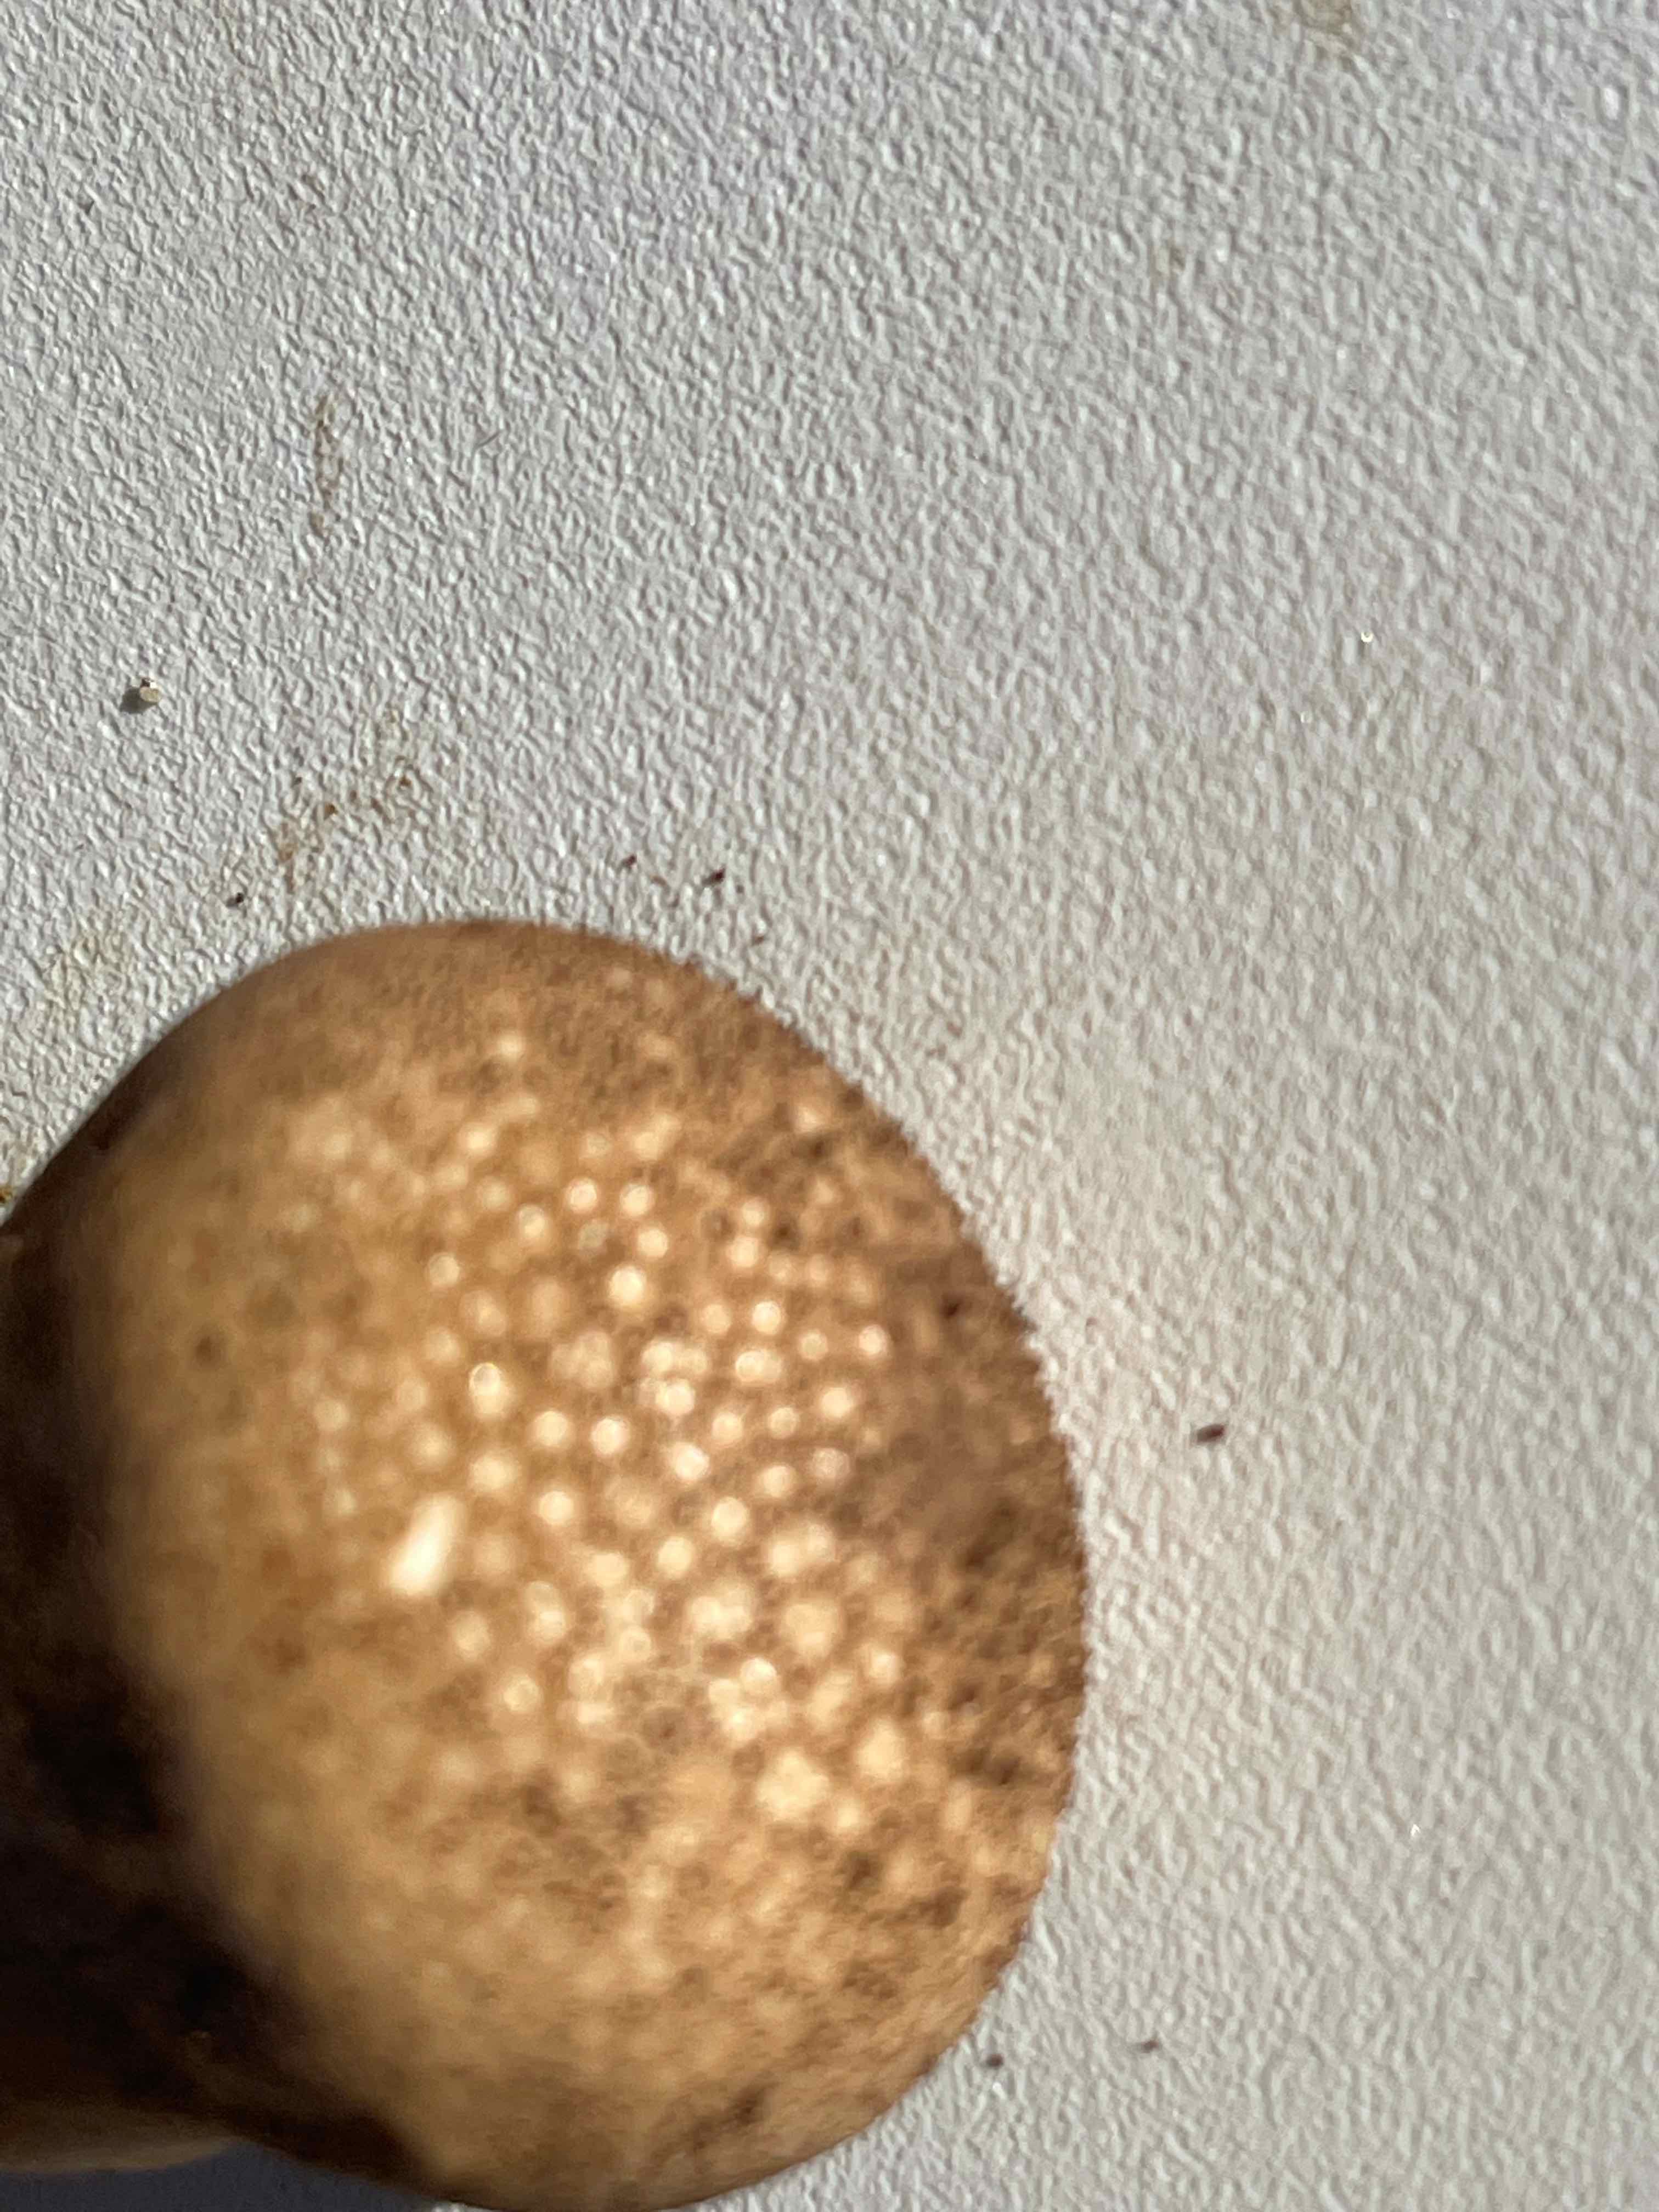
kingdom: Fungi
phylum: Basidiomycota
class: Agaricomycetes
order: Agaricales
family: Lycoperdaceae
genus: Lycoperdon
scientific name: Lycoperdon nigrescens
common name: sortagtig støvbold
